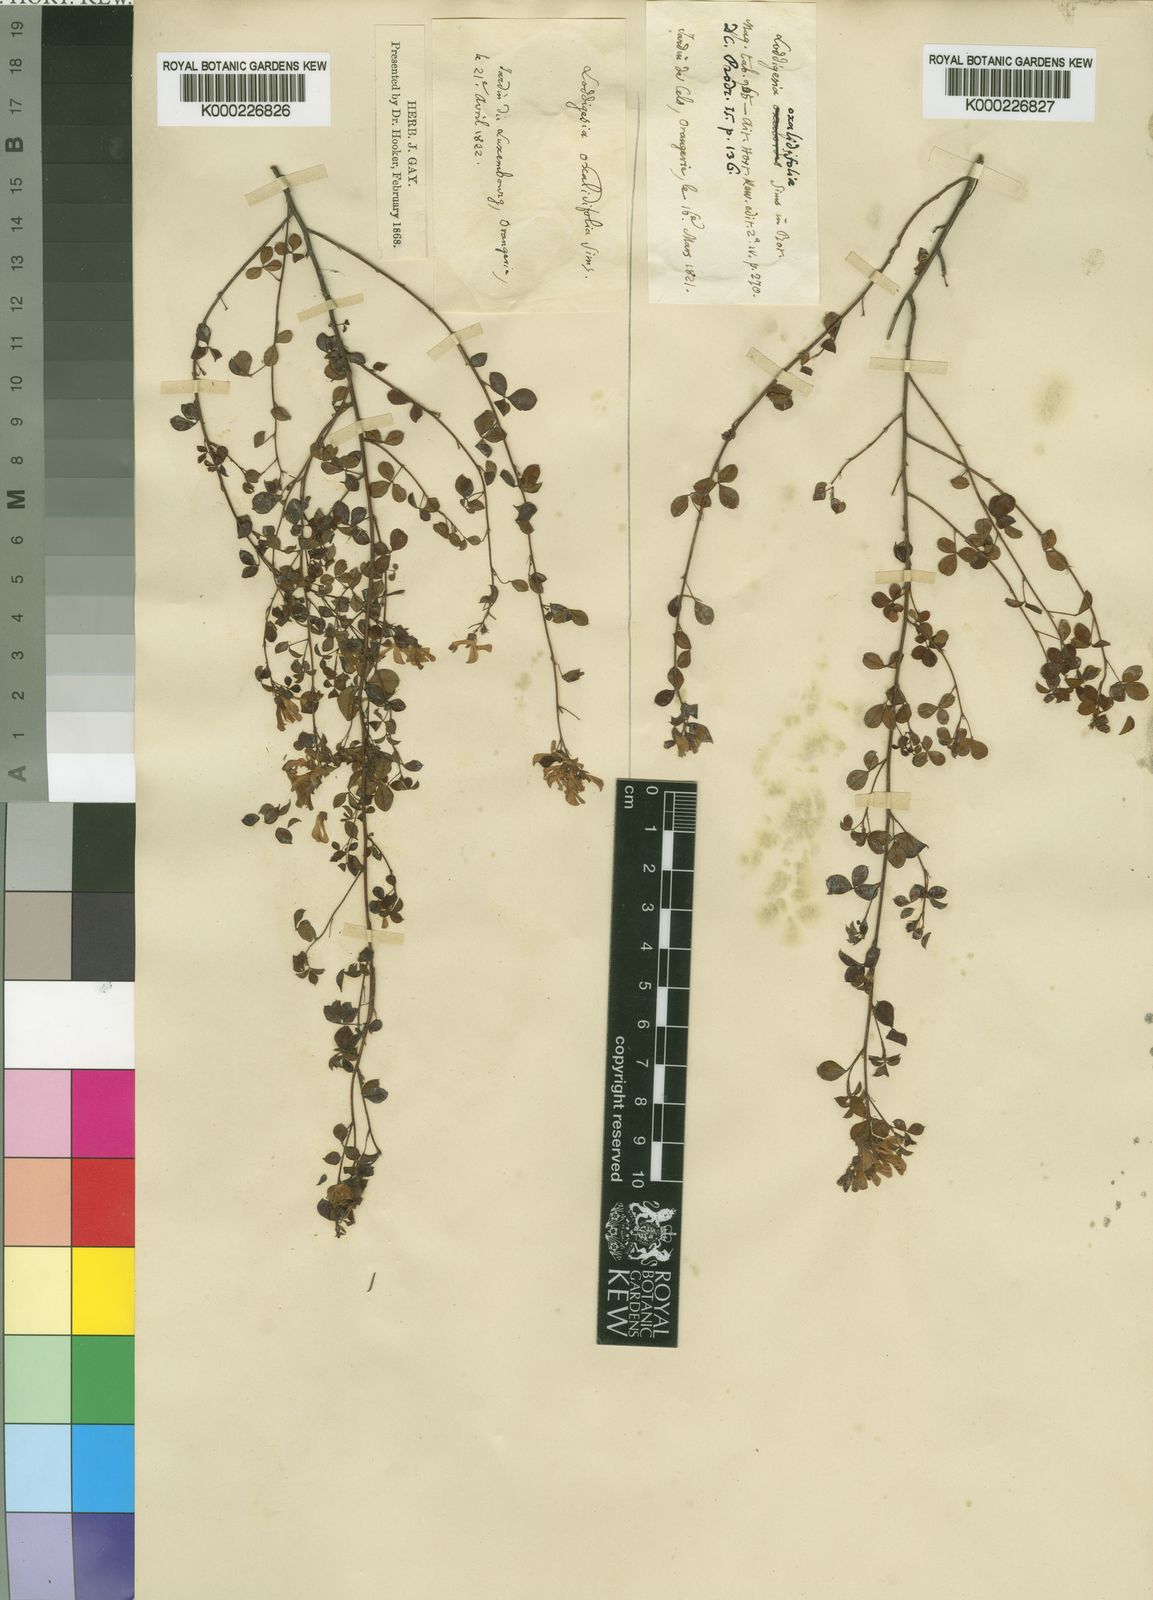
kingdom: Plantae
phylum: Tracheophyta
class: Magnoliopsida
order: Fabales
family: Fabaceae
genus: Hypocalyptus
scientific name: Hypocalyptus oxalidifolius
